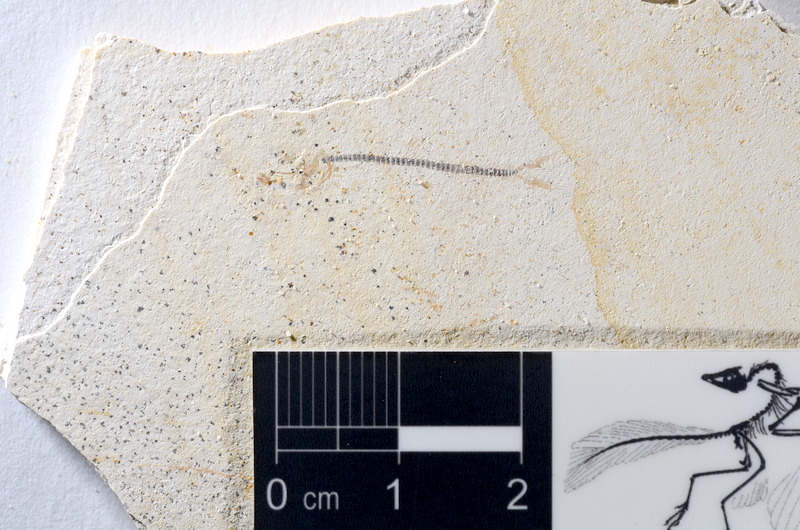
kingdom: Animalia
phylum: Chordata
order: Salmoniformes
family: Orthogonikleithridae
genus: Orthogonikleithrus
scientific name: Orthogonikleithrus hoelli
